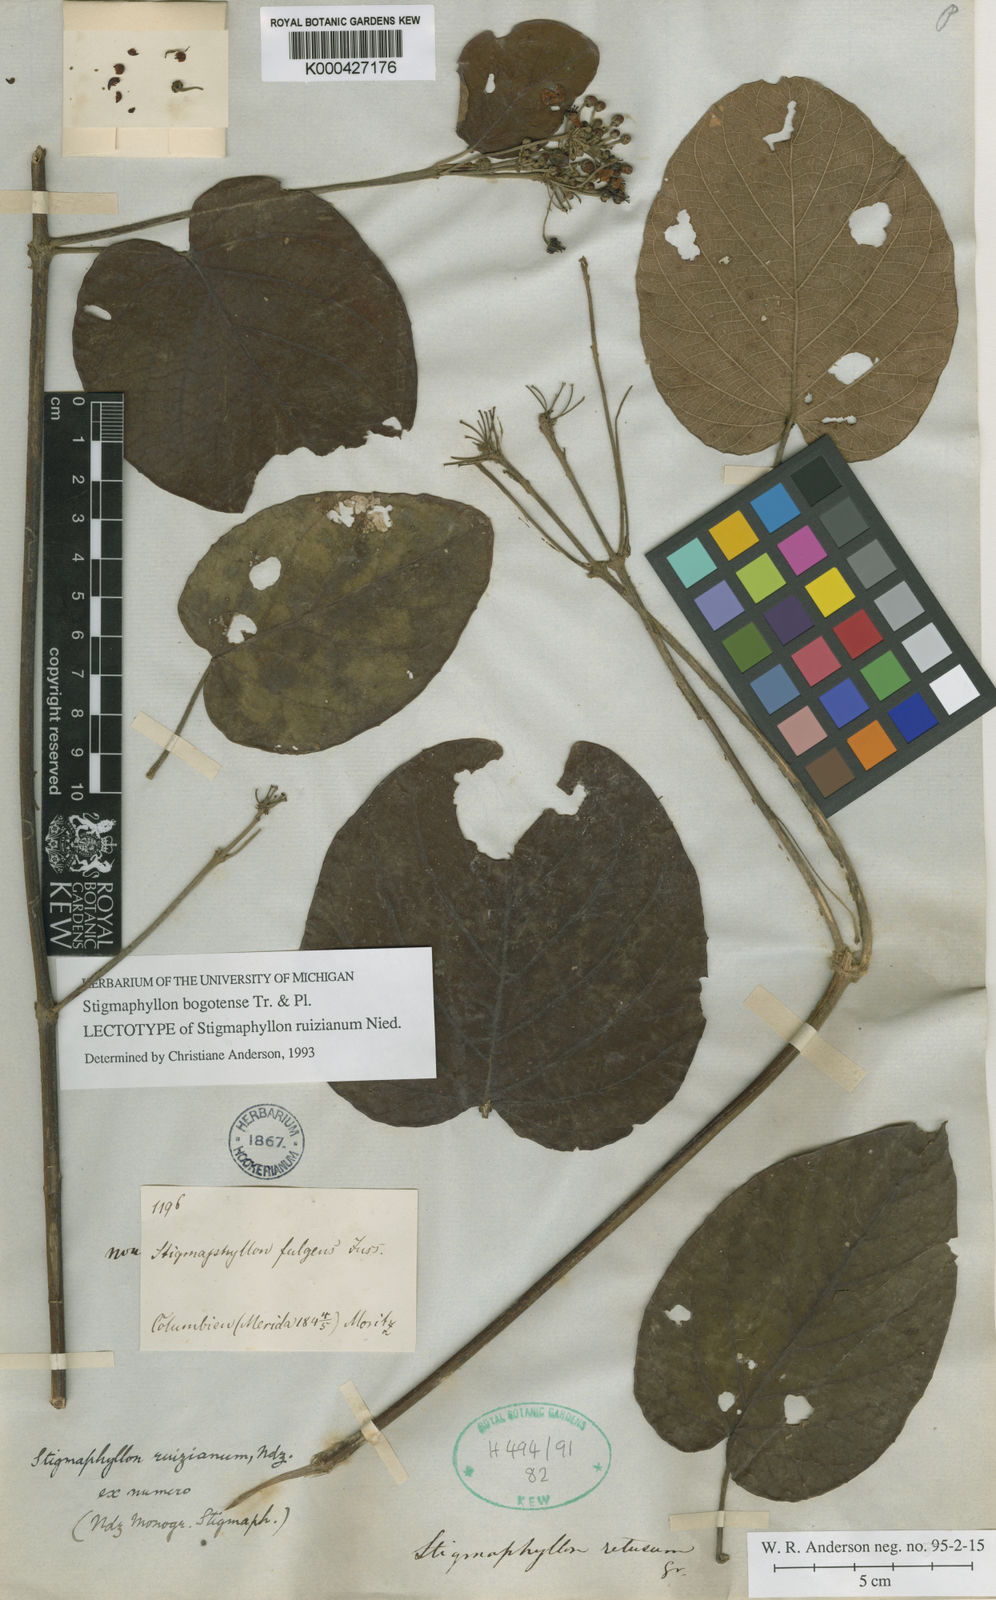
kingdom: Plantae
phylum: Tracheophyta
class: Magnoliopsida
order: Malpighiales
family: Malpighiaceae
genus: Stigmaphyllon
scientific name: Stigmaphyllon bogotense
